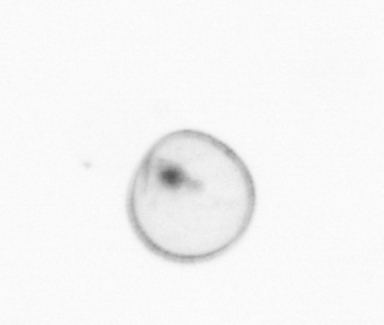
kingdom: Chromista
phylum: Myzozoa
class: Dinophyceae
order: Noctilucales
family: Noctilucaceae
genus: Noctiluca
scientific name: Noctiluca scintillans
